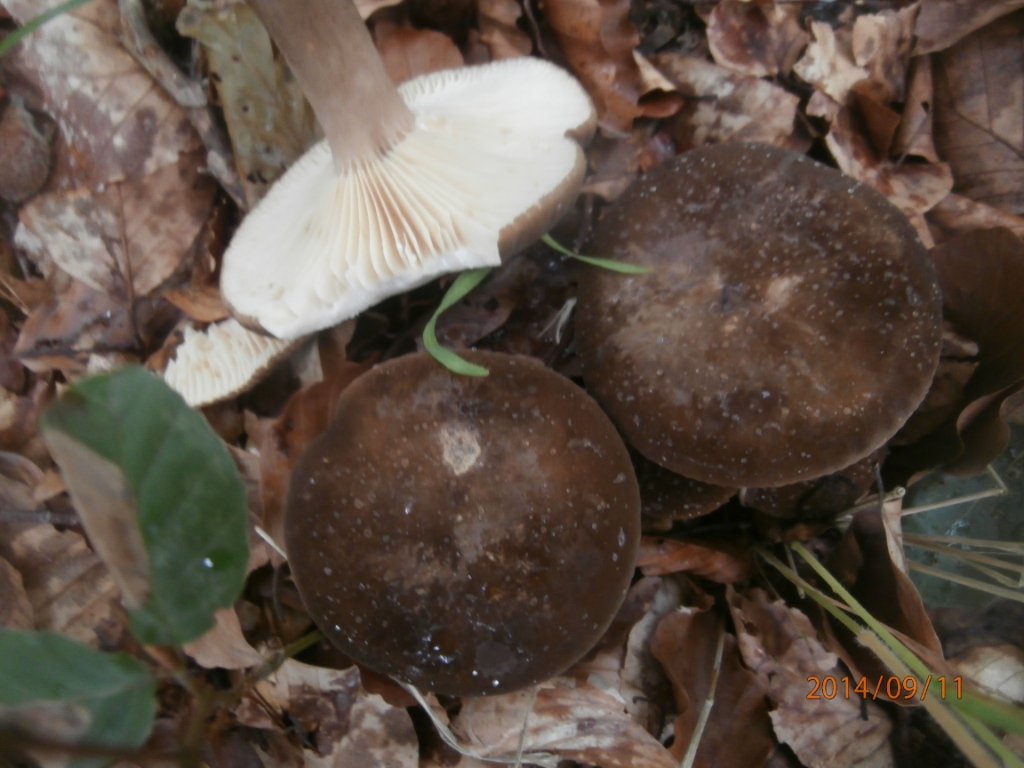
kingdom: Fungi
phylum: Basidiomycota
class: Agaricomycetes
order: Russulales
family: Russulaceae
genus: Lactarius
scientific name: Lactarius romagnesii
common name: fjernbladet mælkehat
